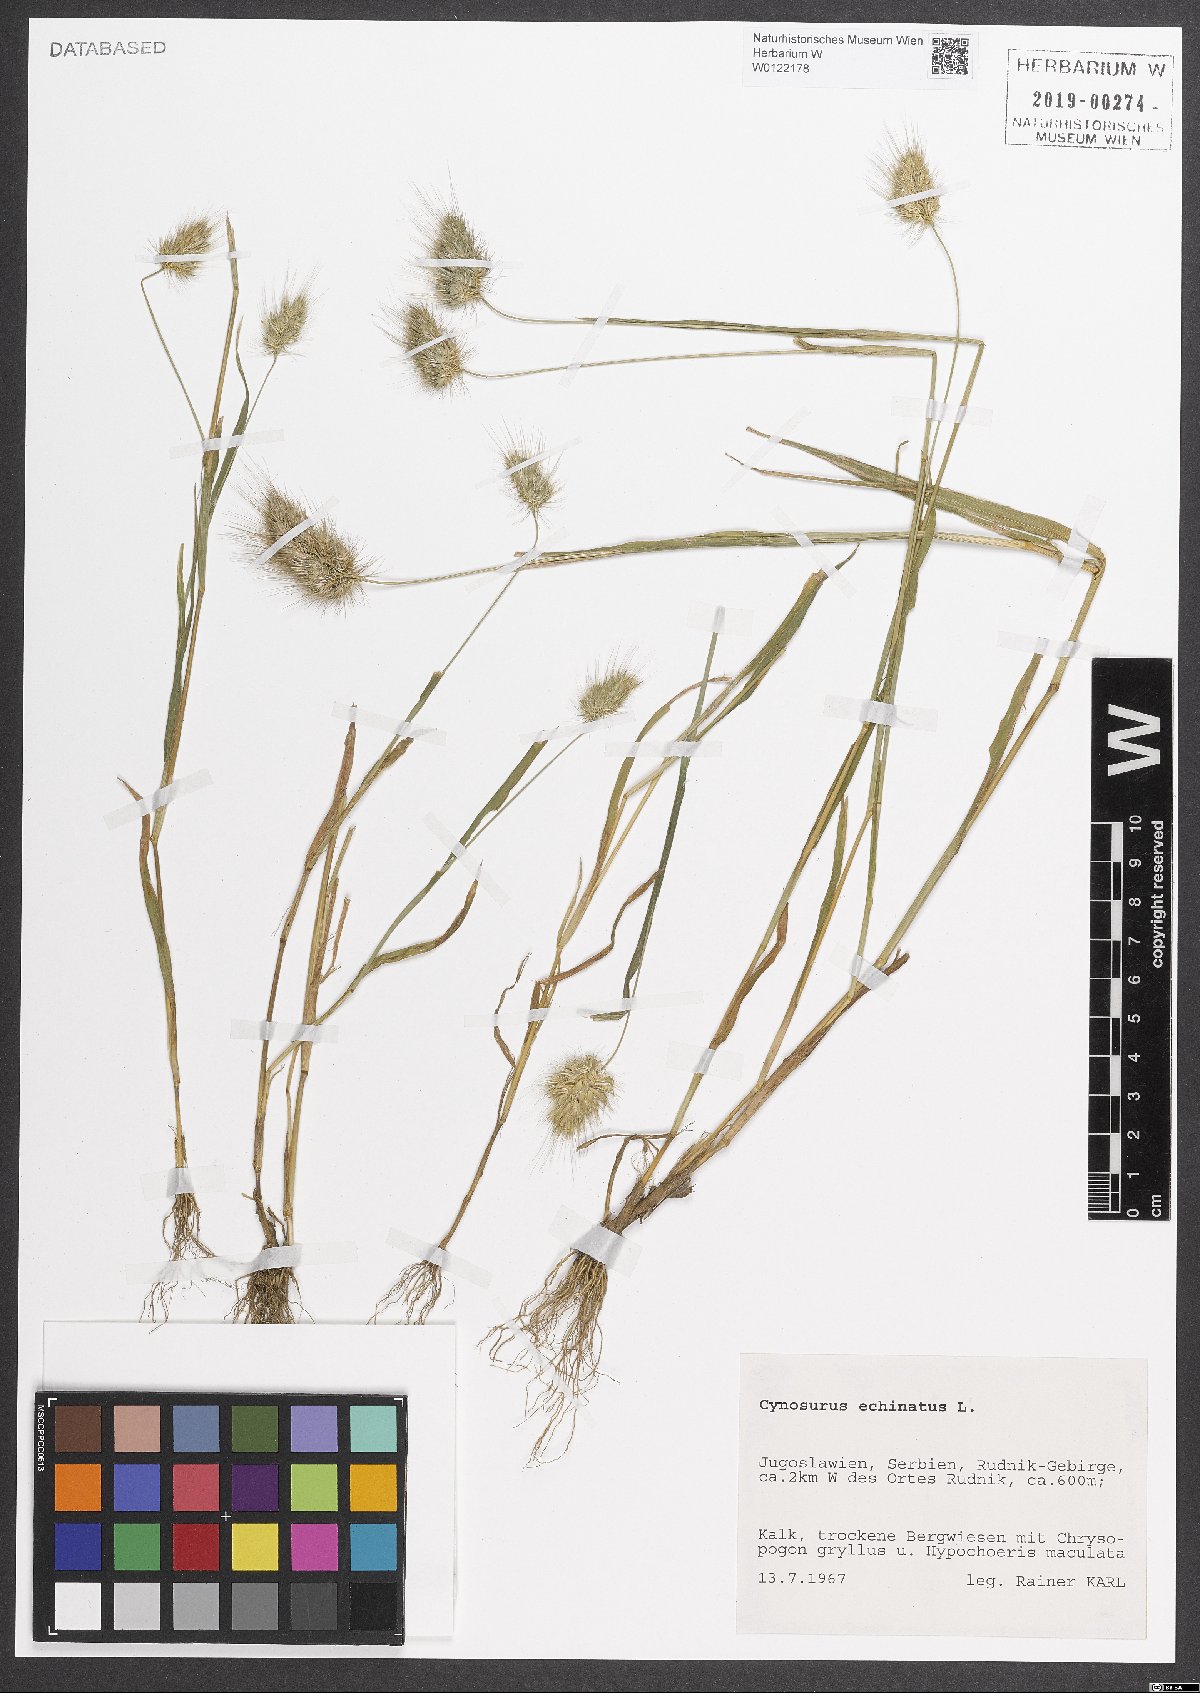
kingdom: Plantae
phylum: Tracheophyta
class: Liliopsida
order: Poales
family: Poaceae
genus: Cynosurus
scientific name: Cynosurus echinatus
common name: Rough dog's-tail
